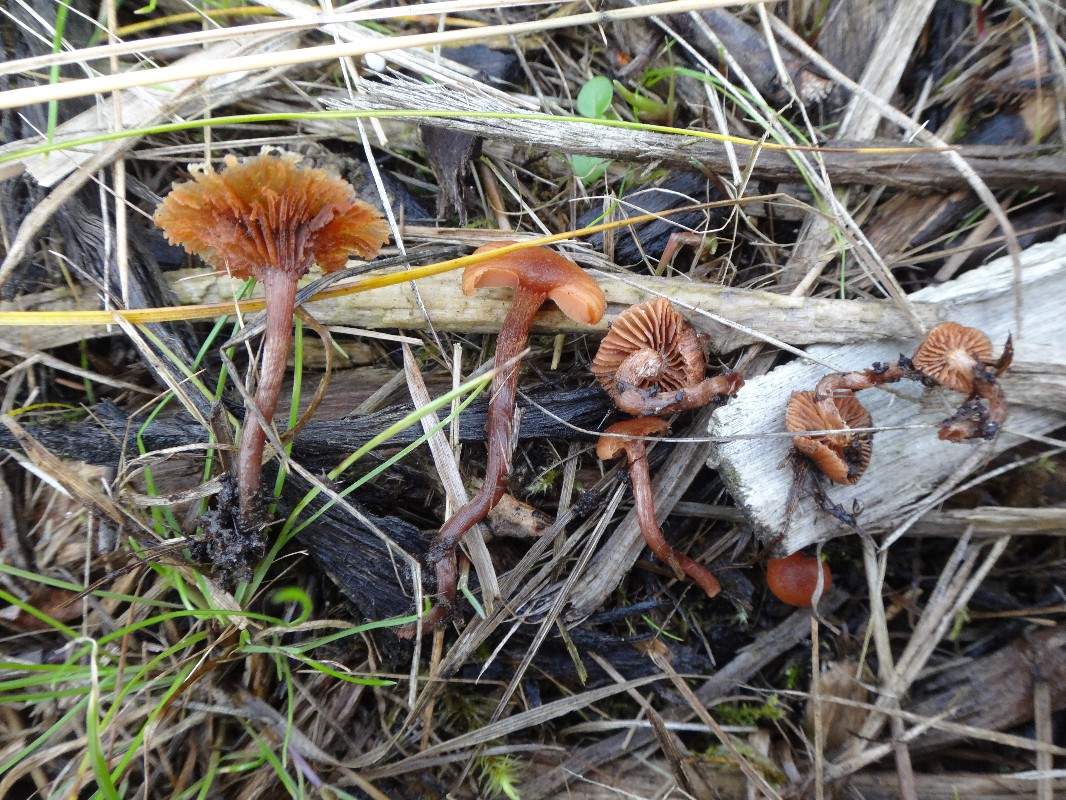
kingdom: Fungi
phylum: Basidiomycota
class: Agaricomycetes
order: Agaricales
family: Tubariaceae
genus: Tubaria
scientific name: Tubaria furfuracea
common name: kliddet fnughat
